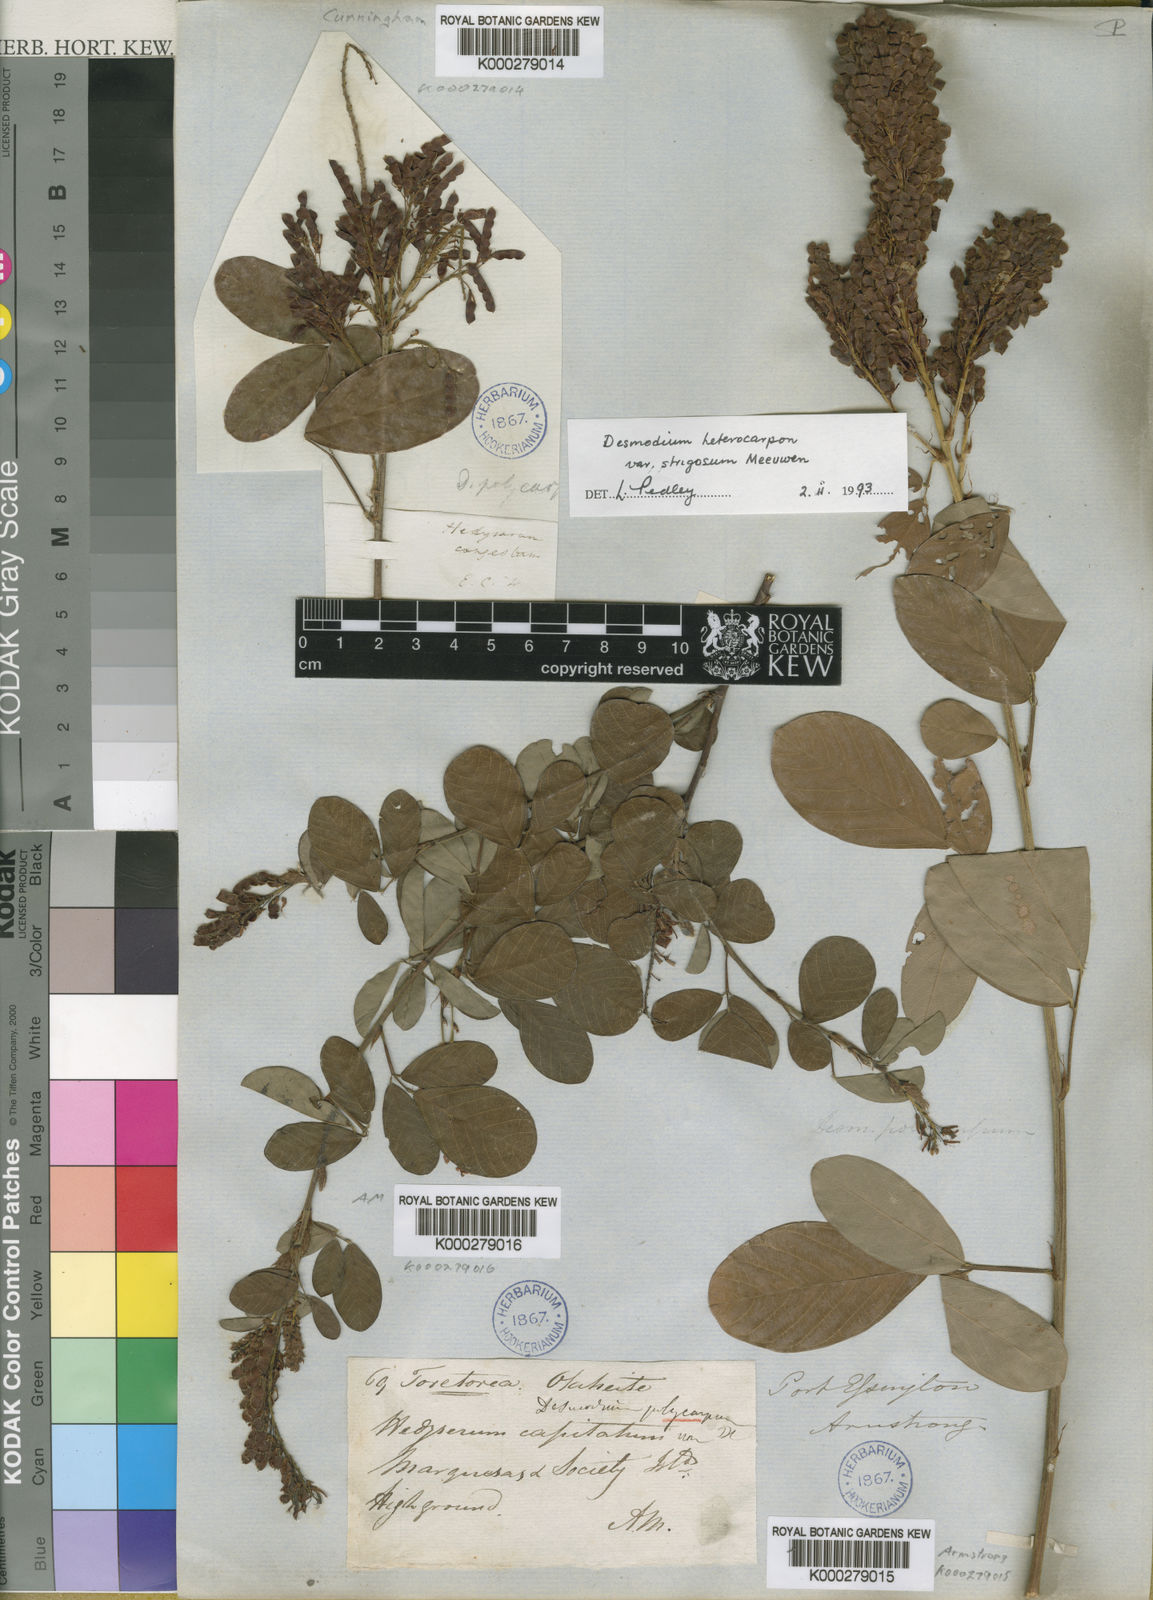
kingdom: Plantae
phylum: Tracheophyta
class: Magnoliopsida
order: Fabales
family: Fabaceae
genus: Grona
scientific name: Grona heterocarpos
